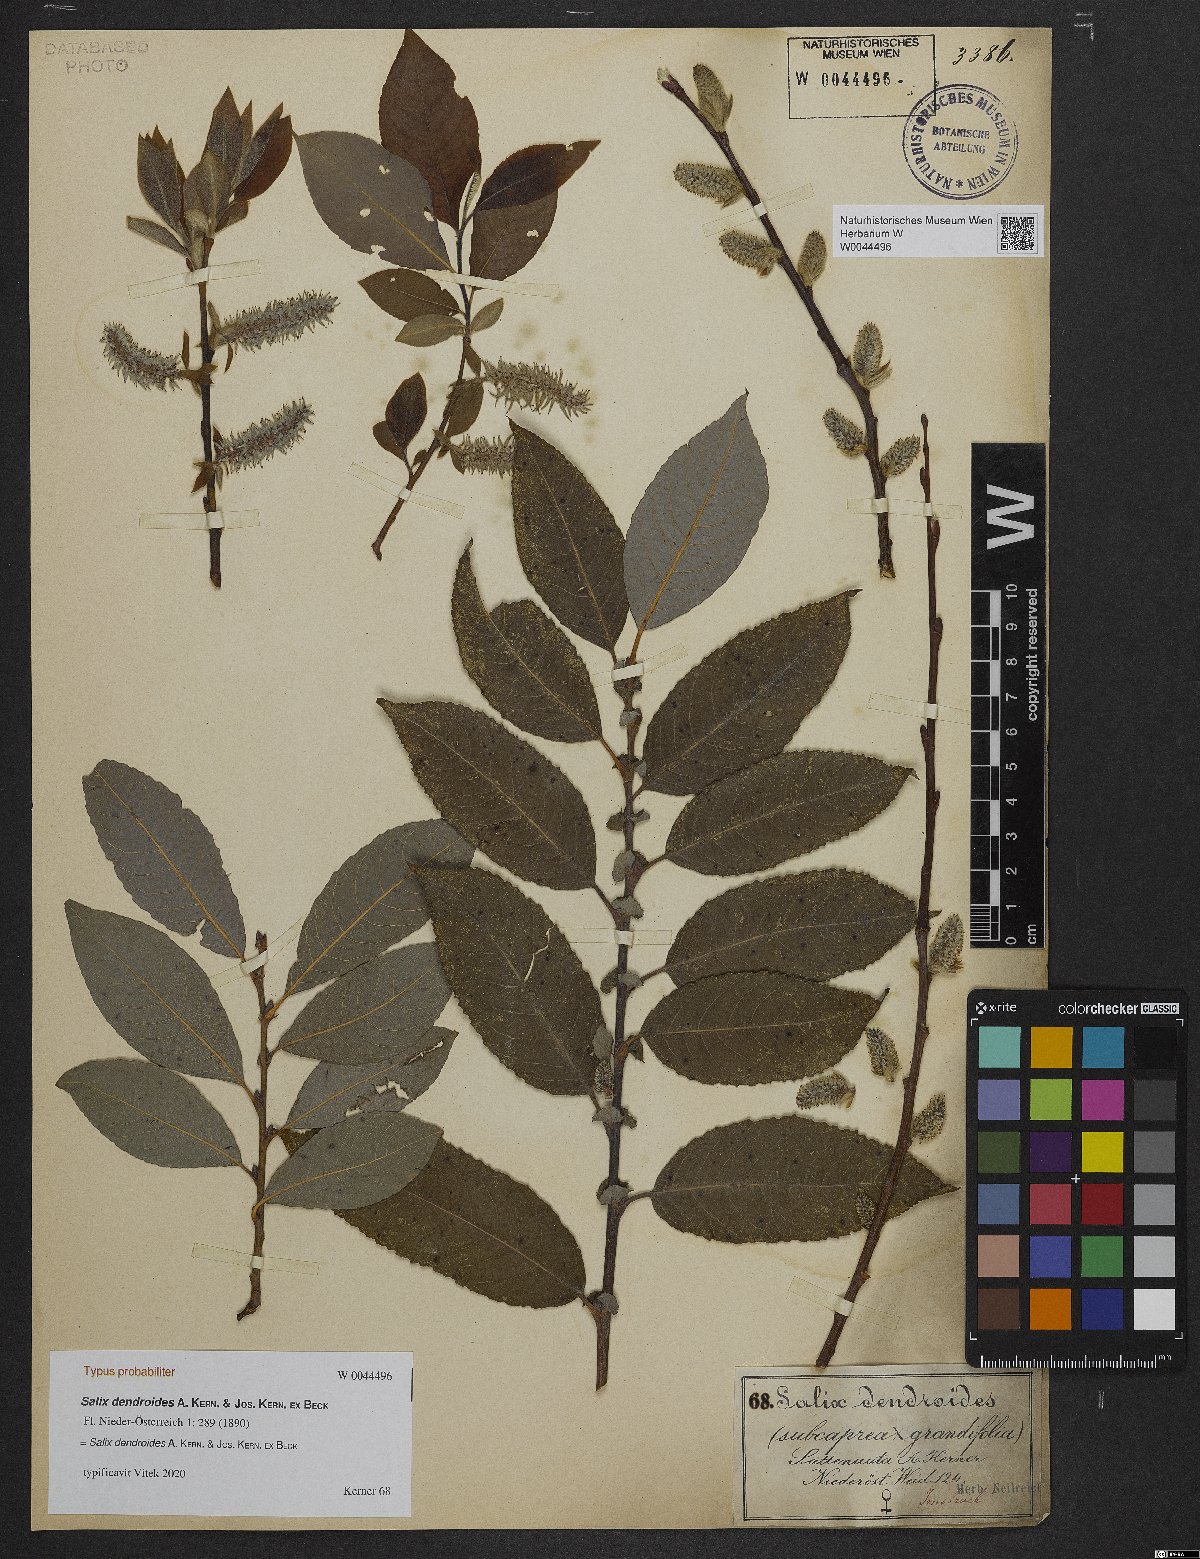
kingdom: Plantae
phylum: Tracheophyta
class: Magnoliopsida
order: Malpighiales
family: Salicaceae
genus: Salix
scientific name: Salix dendroides
